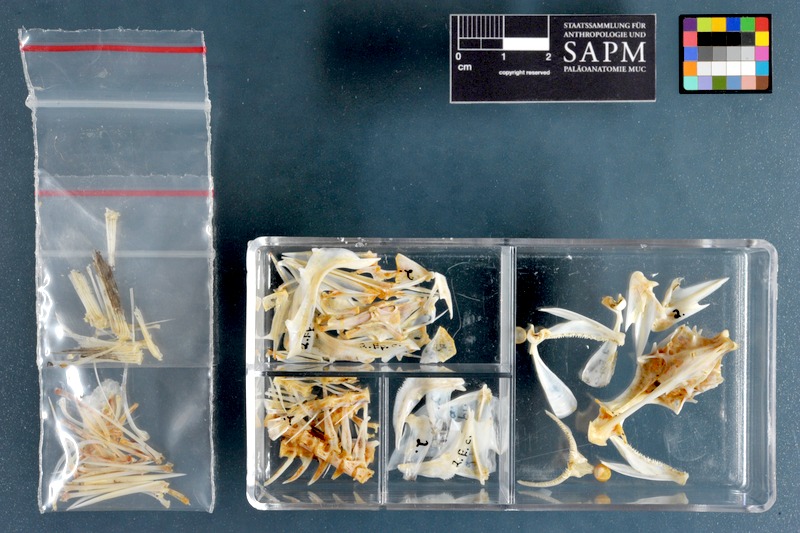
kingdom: Animalia
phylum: Chordata
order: Perciformes
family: Serranidae
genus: Epinephelus
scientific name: Epinephelus coeruleopunctatus
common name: Whitespotted grouper
